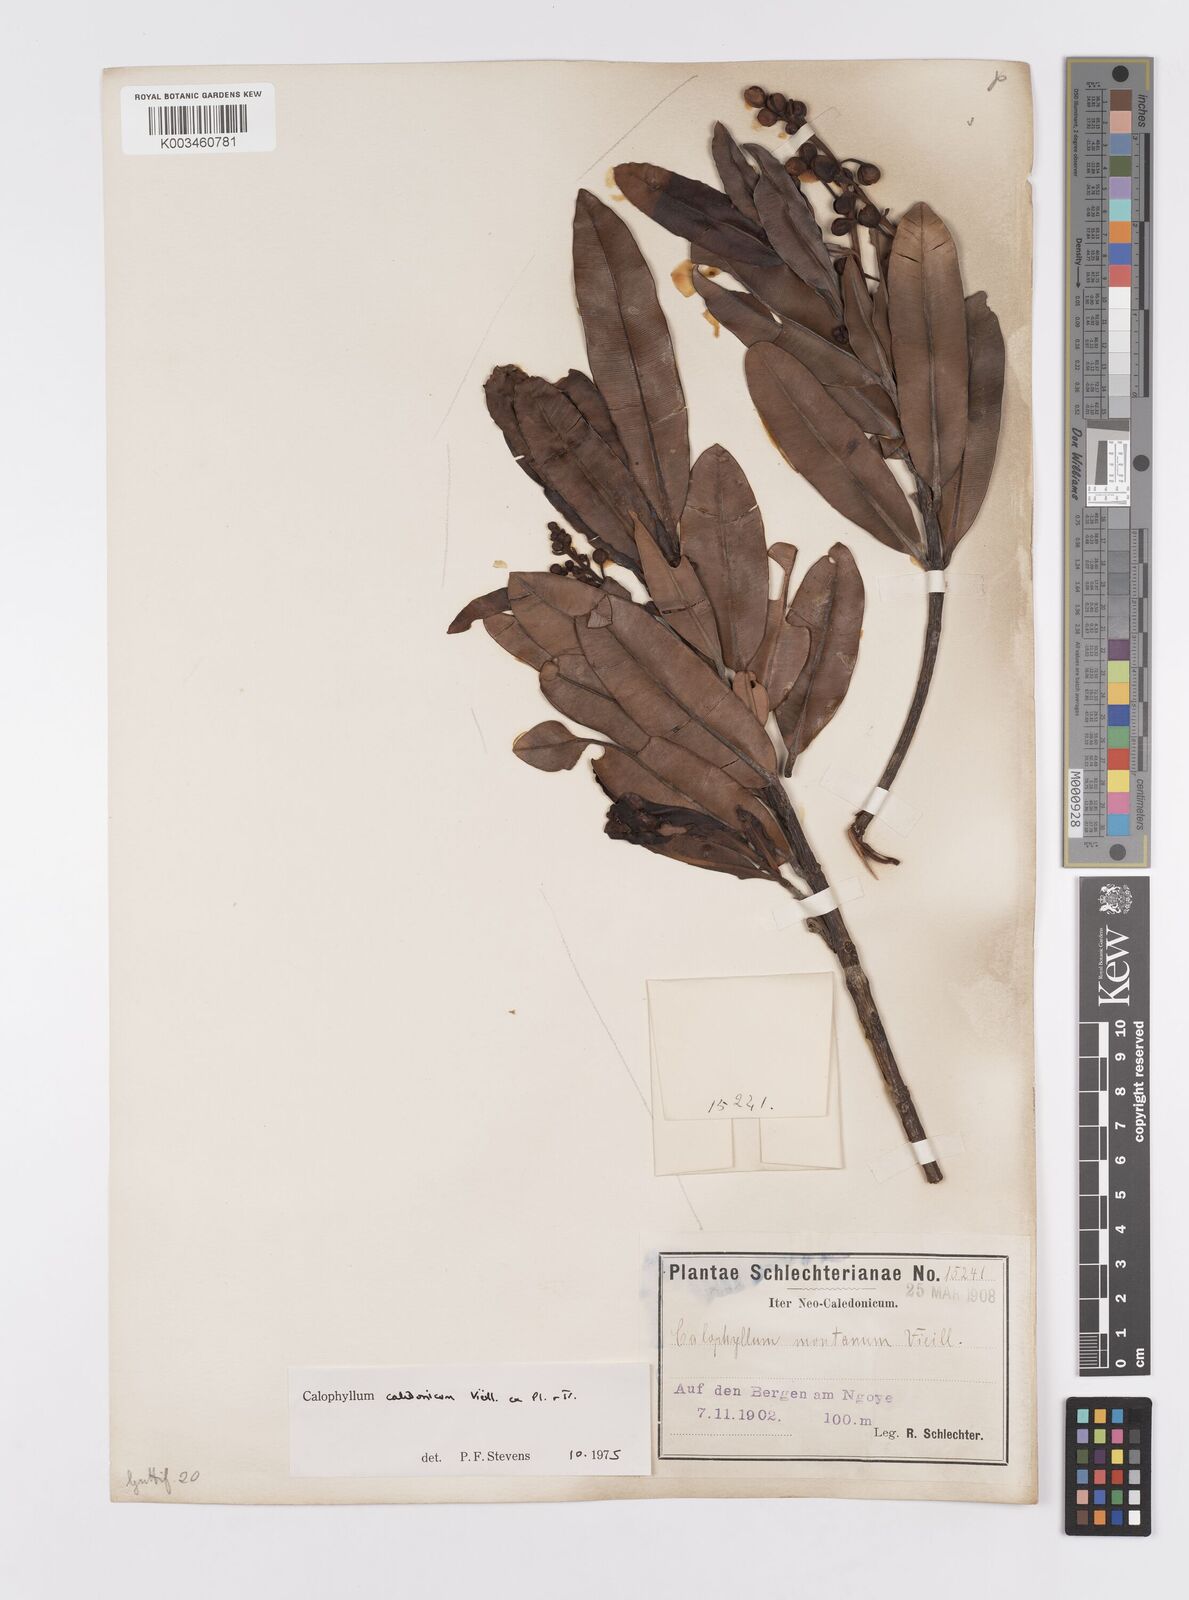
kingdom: Plantae
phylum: Tracheophyta
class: Magnoliopsida
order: Malpighiales
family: Calophyllaceae
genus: Calophyllum
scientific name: Calophyllum caledonicum
